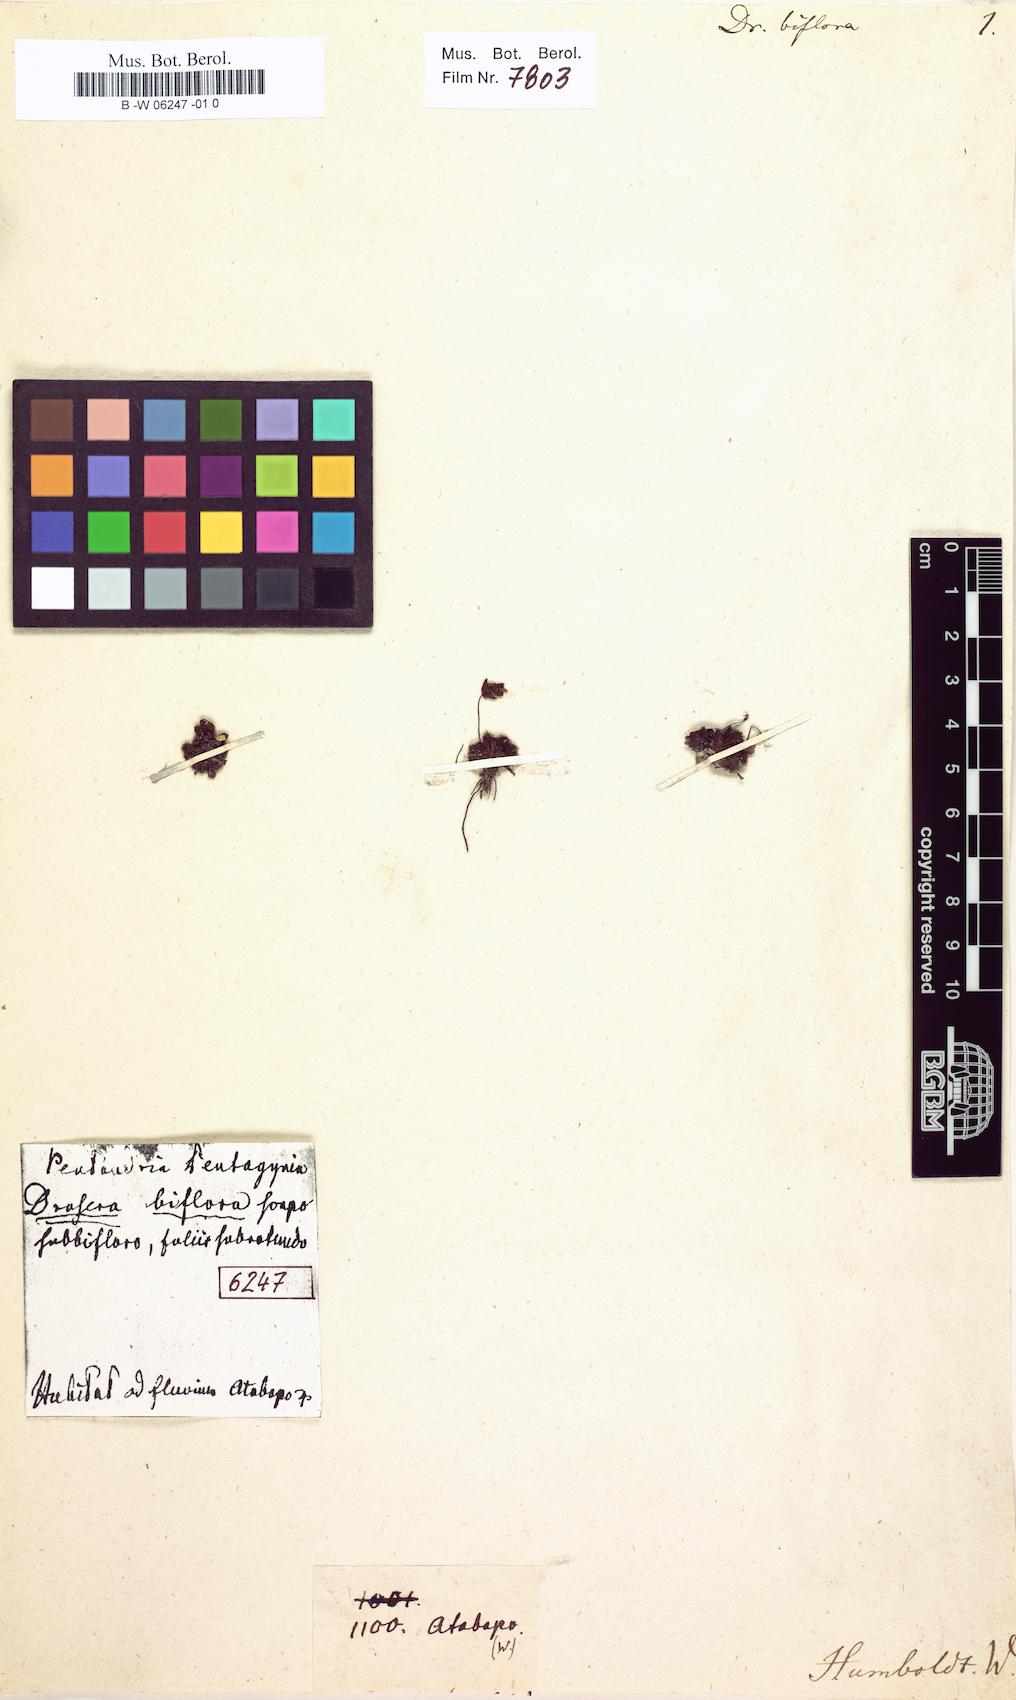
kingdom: Plantae
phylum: Tracheophyta
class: Magnoliopsida
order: Caryophyllales
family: Droseraceae
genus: Drosera
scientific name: Drosera biflora
